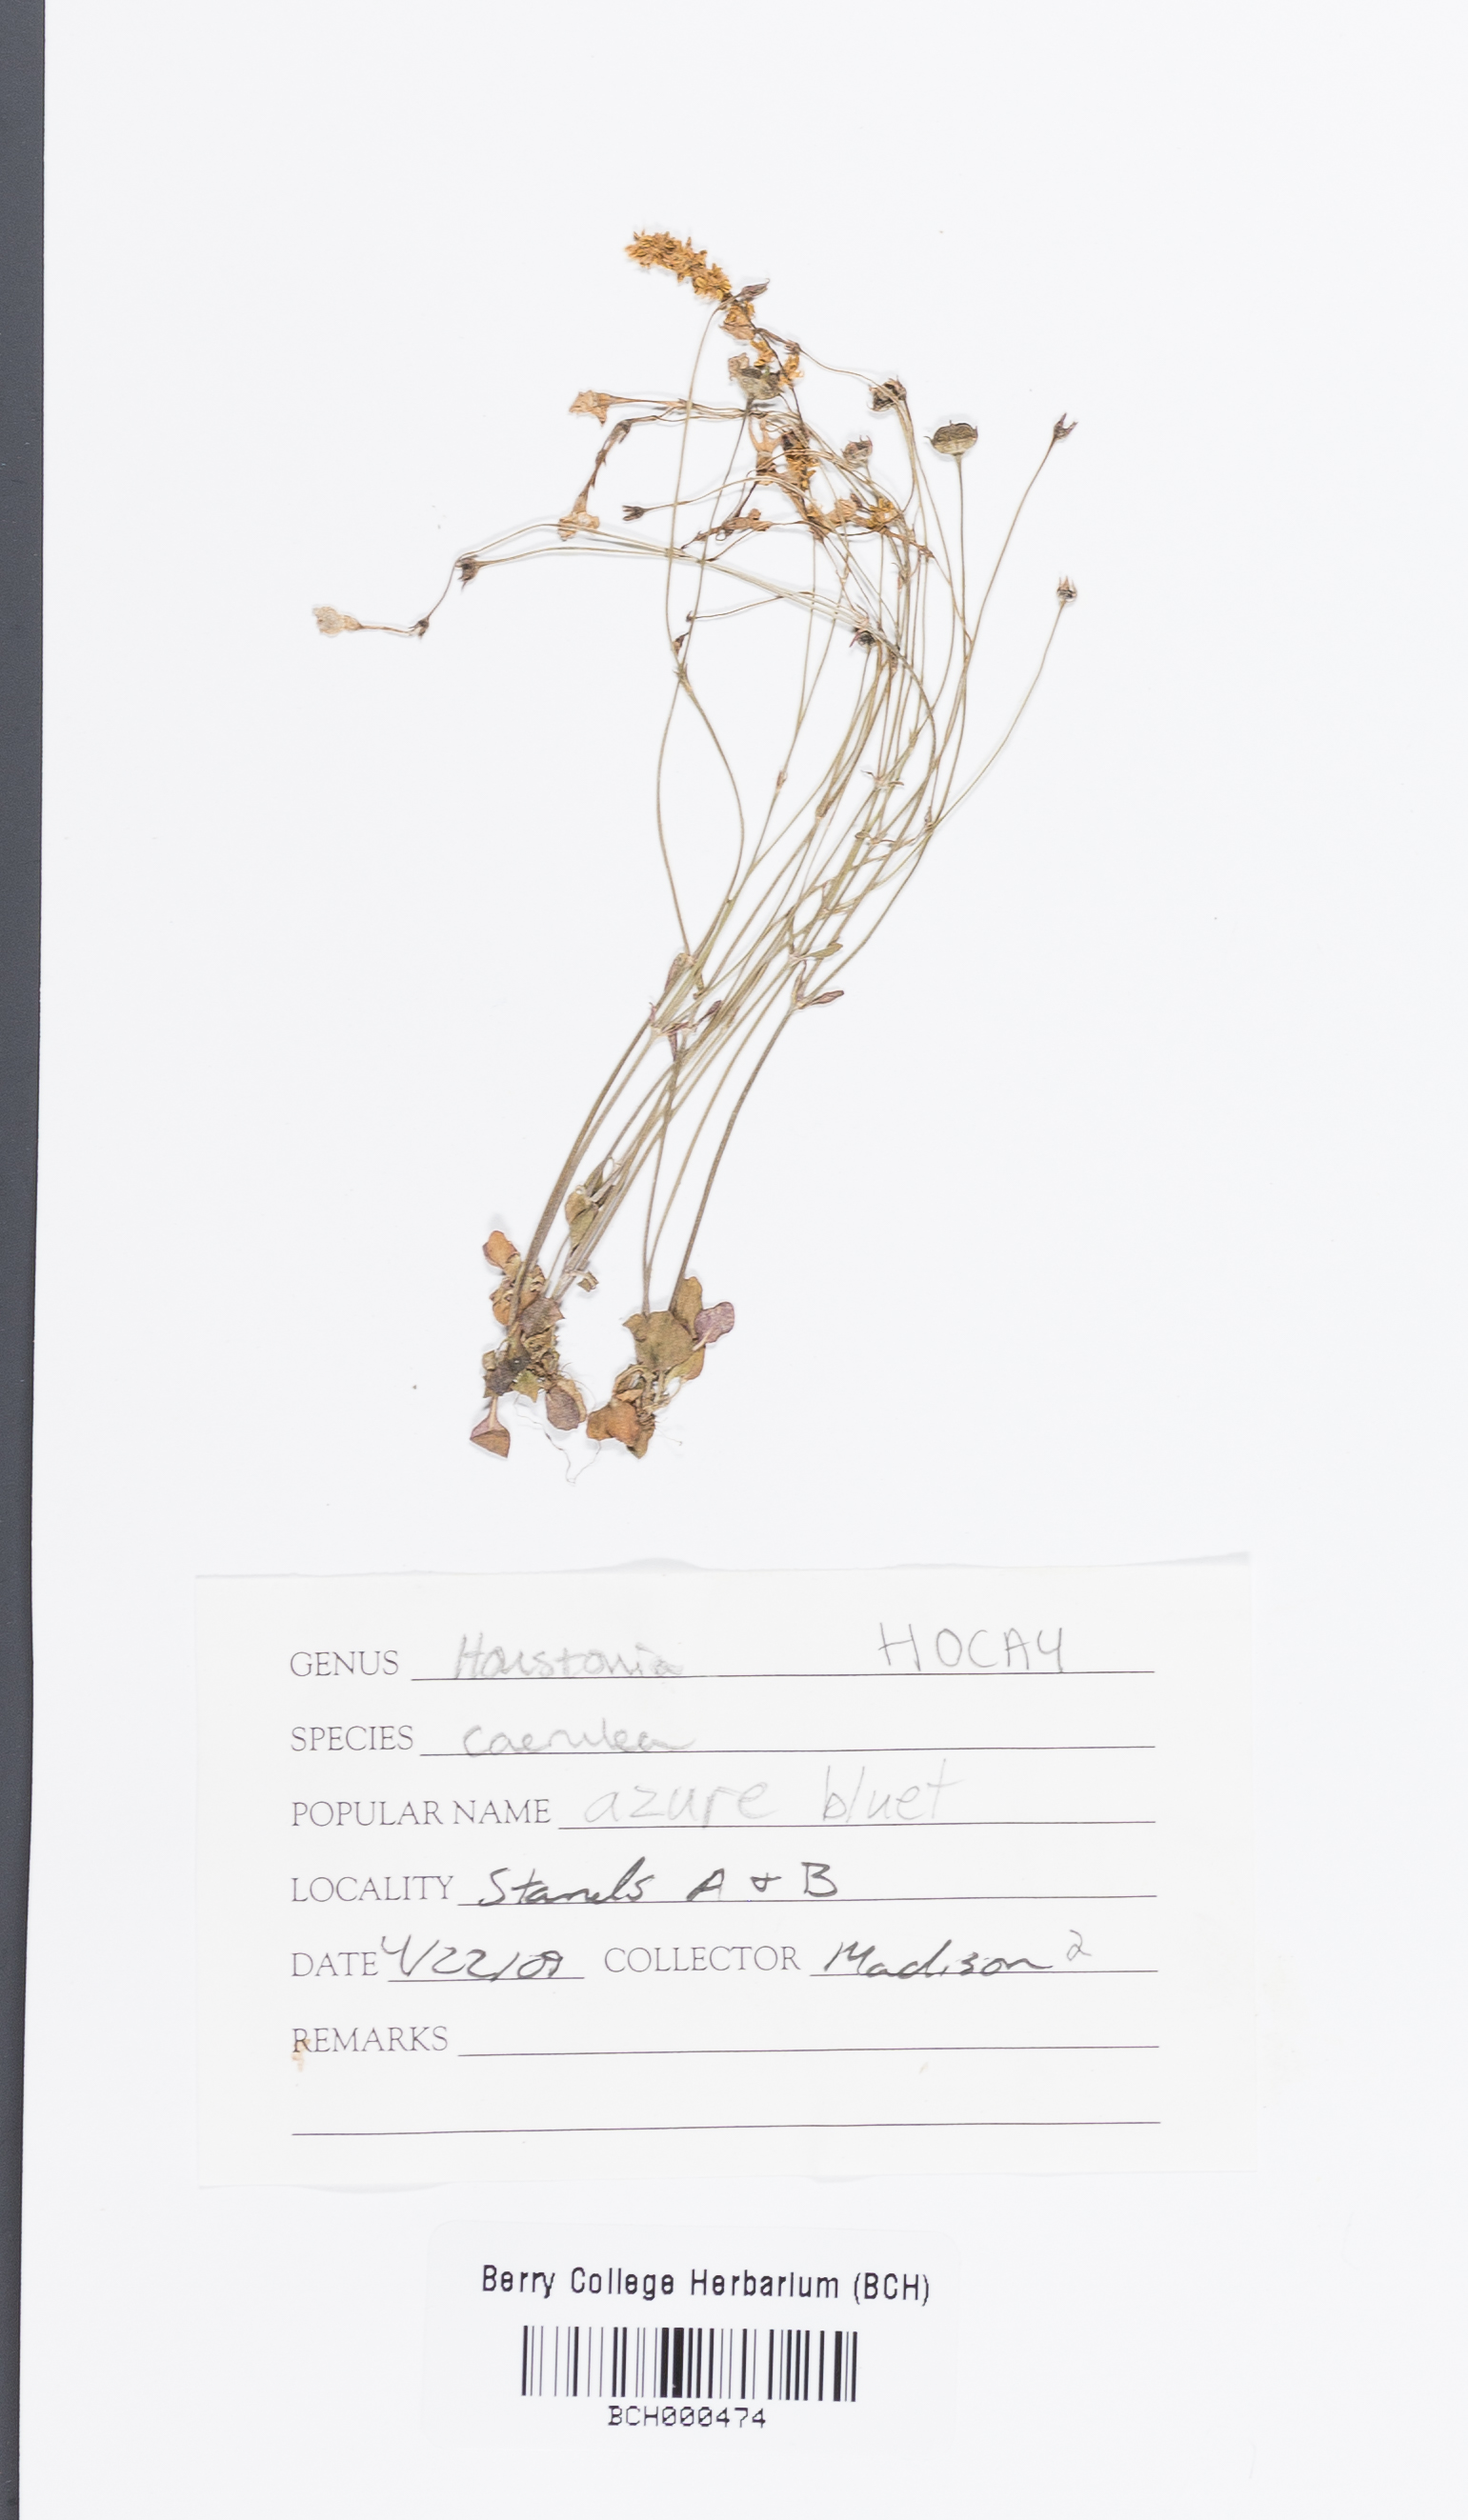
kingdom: Plantae
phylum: Tracheophyta
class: Magnoliopsida
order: Gentianales
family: Rubiaceae
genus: Houstonia
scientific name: Houstonia caerulea
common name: Bluets
